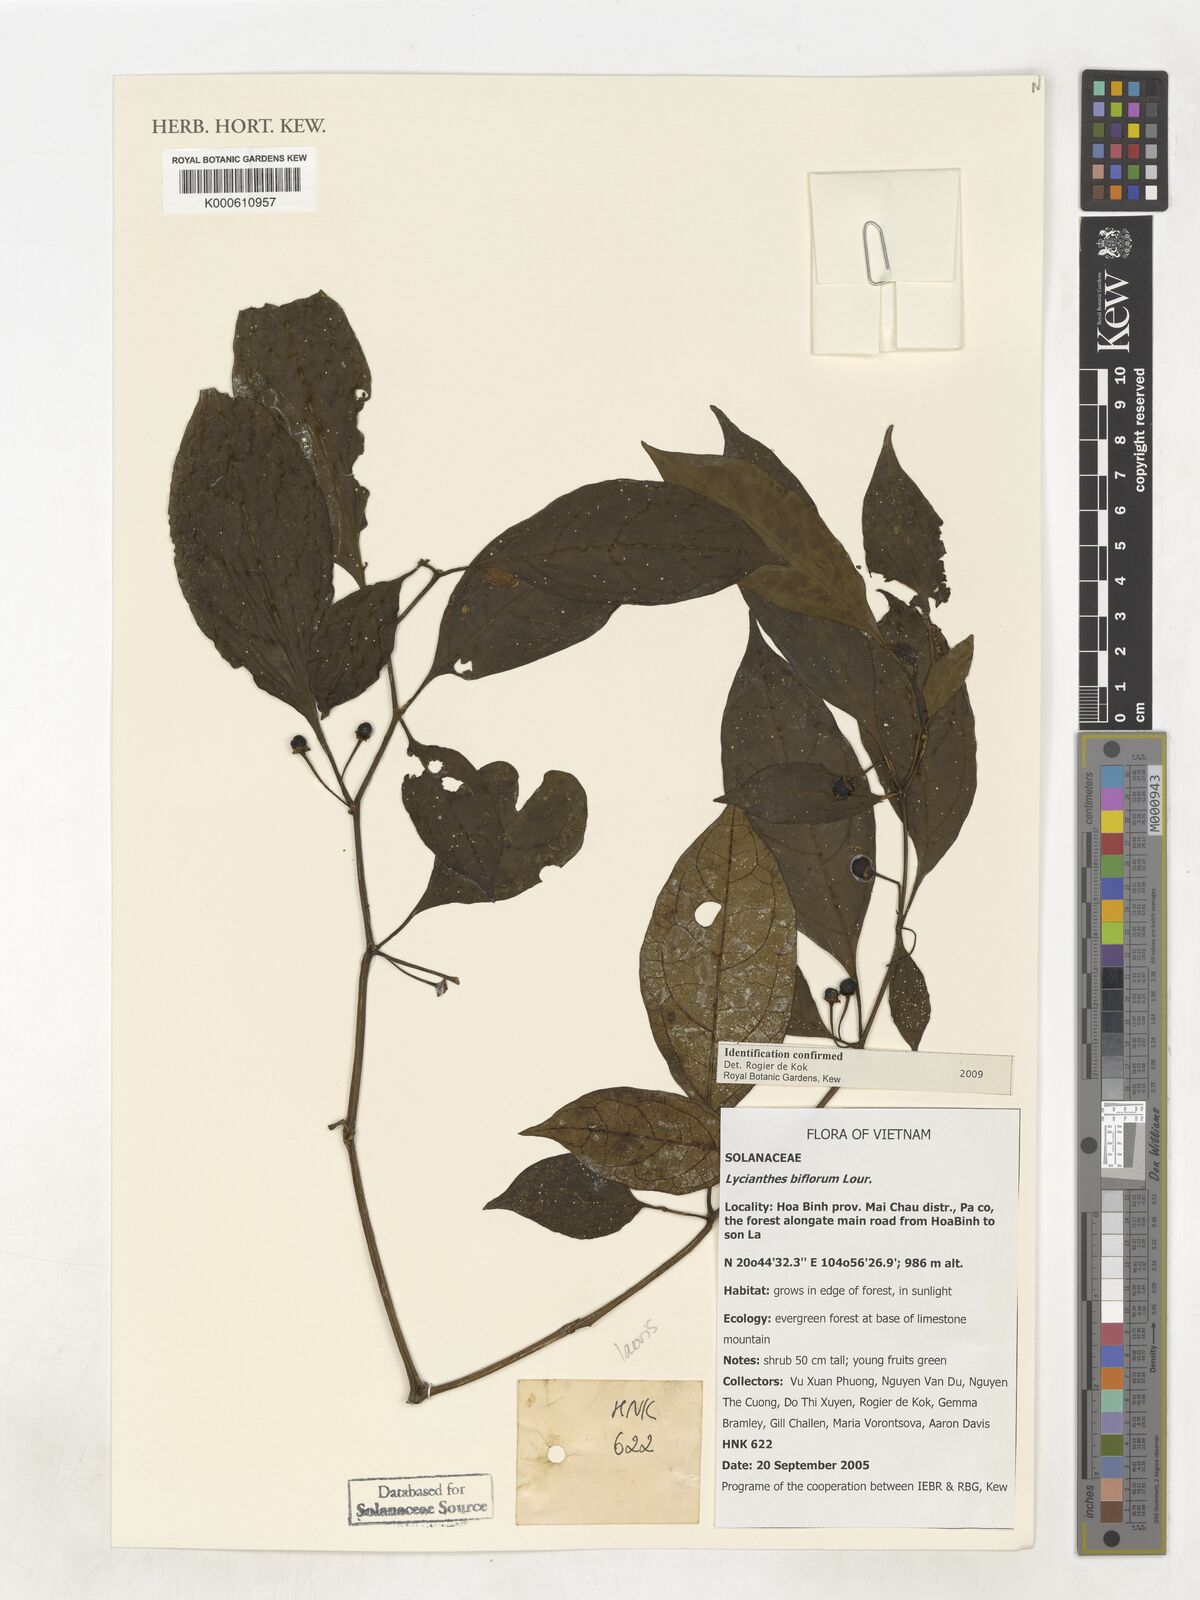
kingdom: Plantae
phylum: Tracheophyta
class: Magnoliopsida
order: Solanales
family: Solanaceae
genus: Lycianthes
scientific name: Lycianthes biflora
